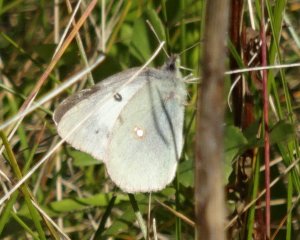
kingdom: Animalia
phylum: Arthropoda
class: Insecta
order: Lepidoptera
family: Pieridae
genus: Colias
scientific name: Colias philodice
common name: Clouded Sulphur
